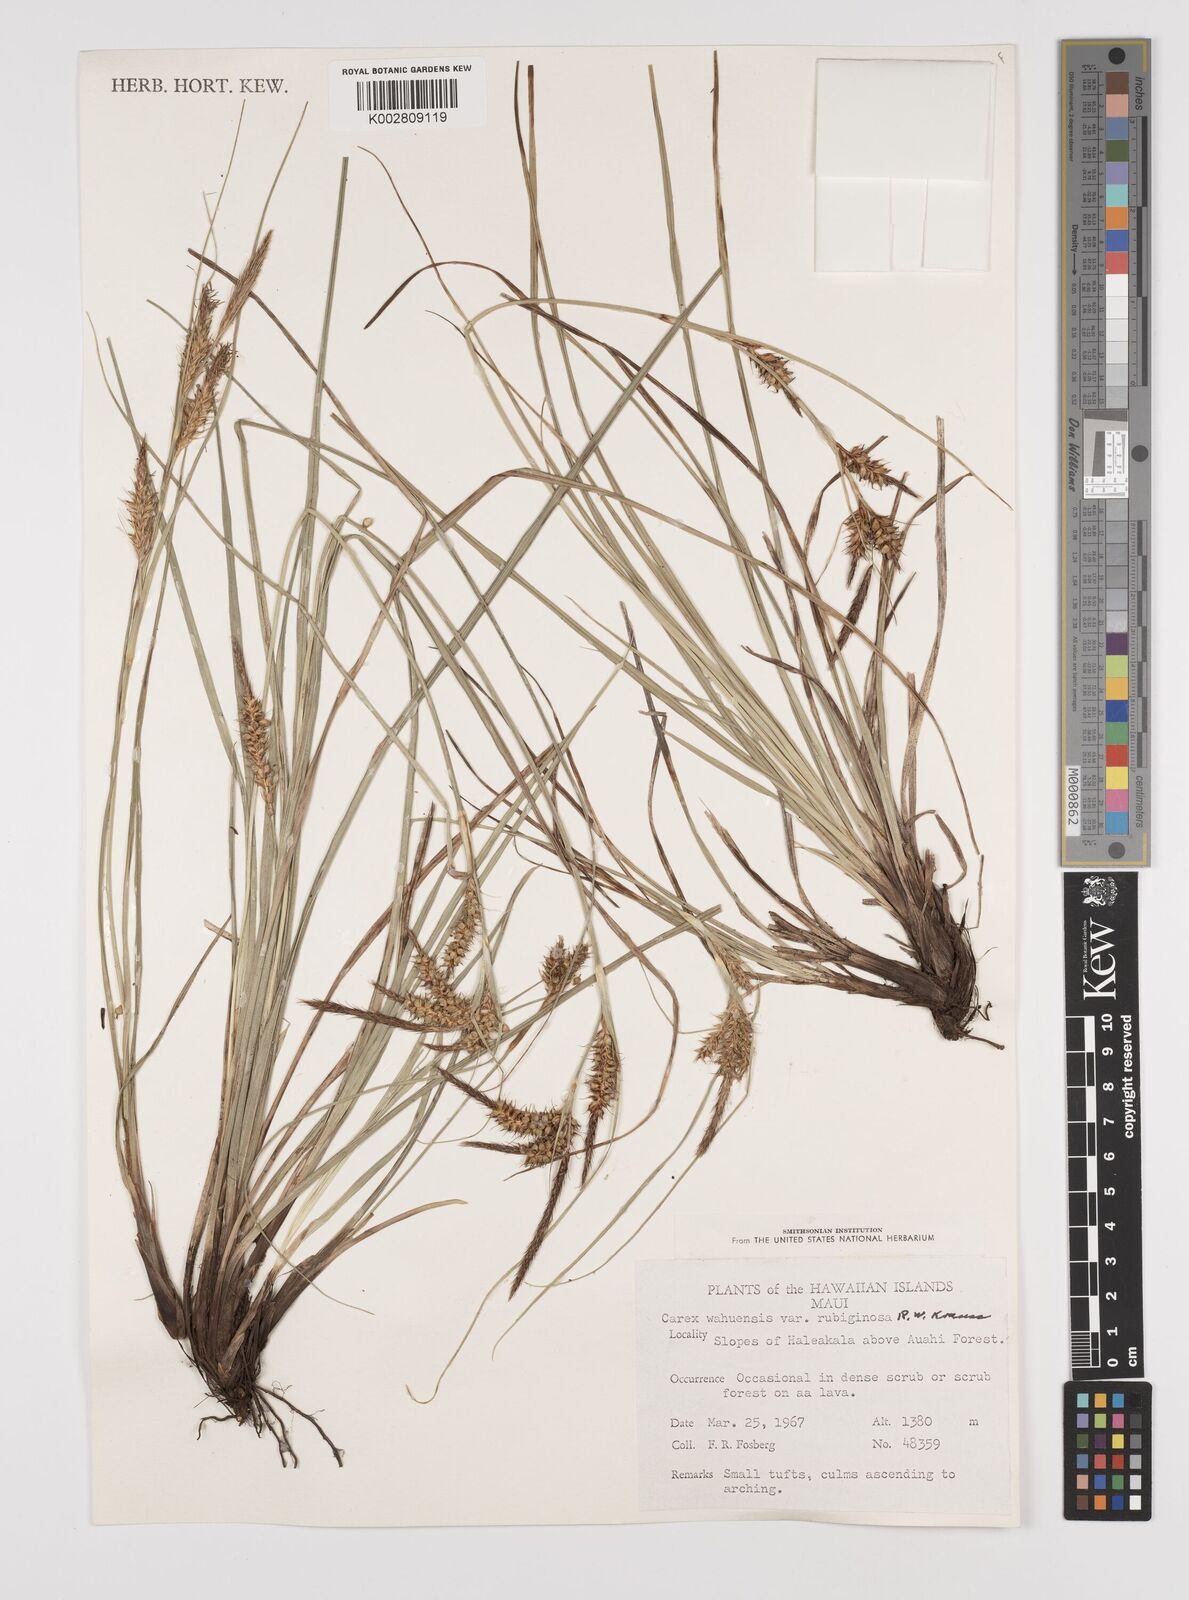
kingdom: Plantae
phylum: Tracheophyta
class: Liliopsida
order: Poales
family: Cyperaceae
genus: Carex
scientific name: Carex wahuensis
